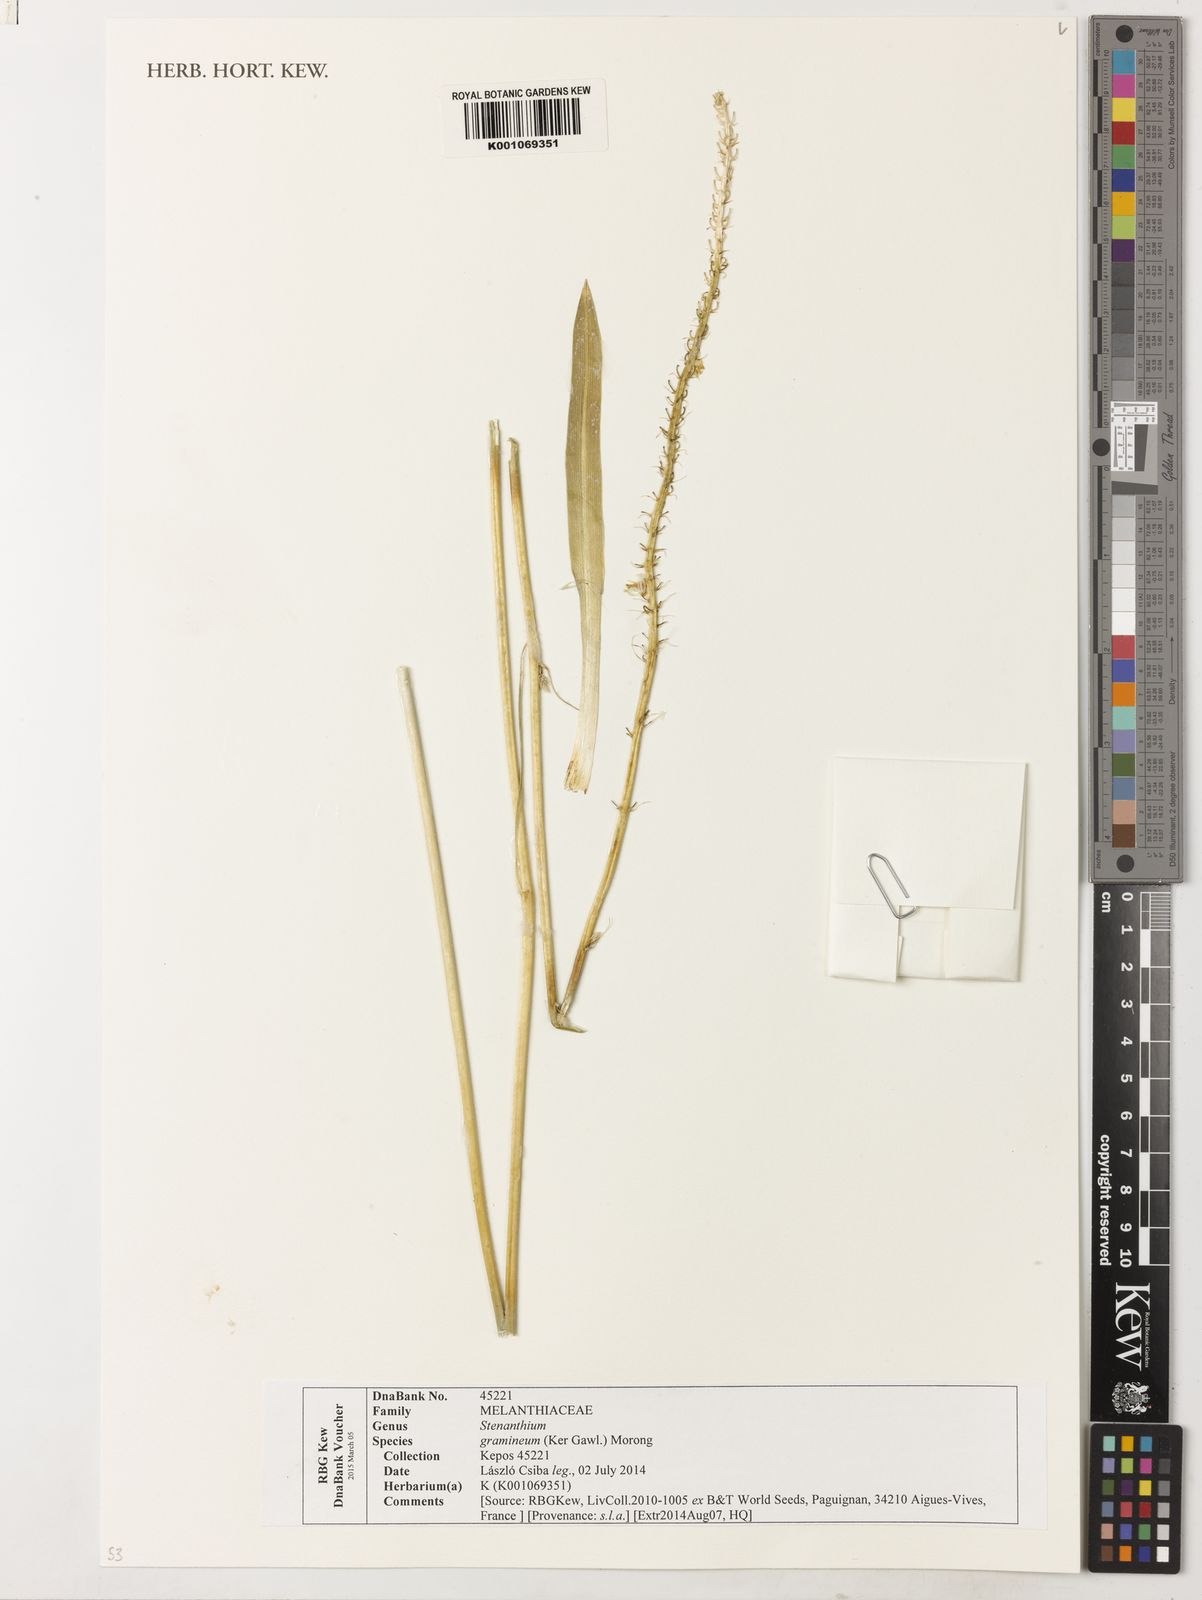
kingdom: Plantae
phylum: Tracheophyta
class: Liliopsida
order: Liliales
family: Melanthiaceae
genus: Stenanthium
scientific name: Stenanthium gramineum
